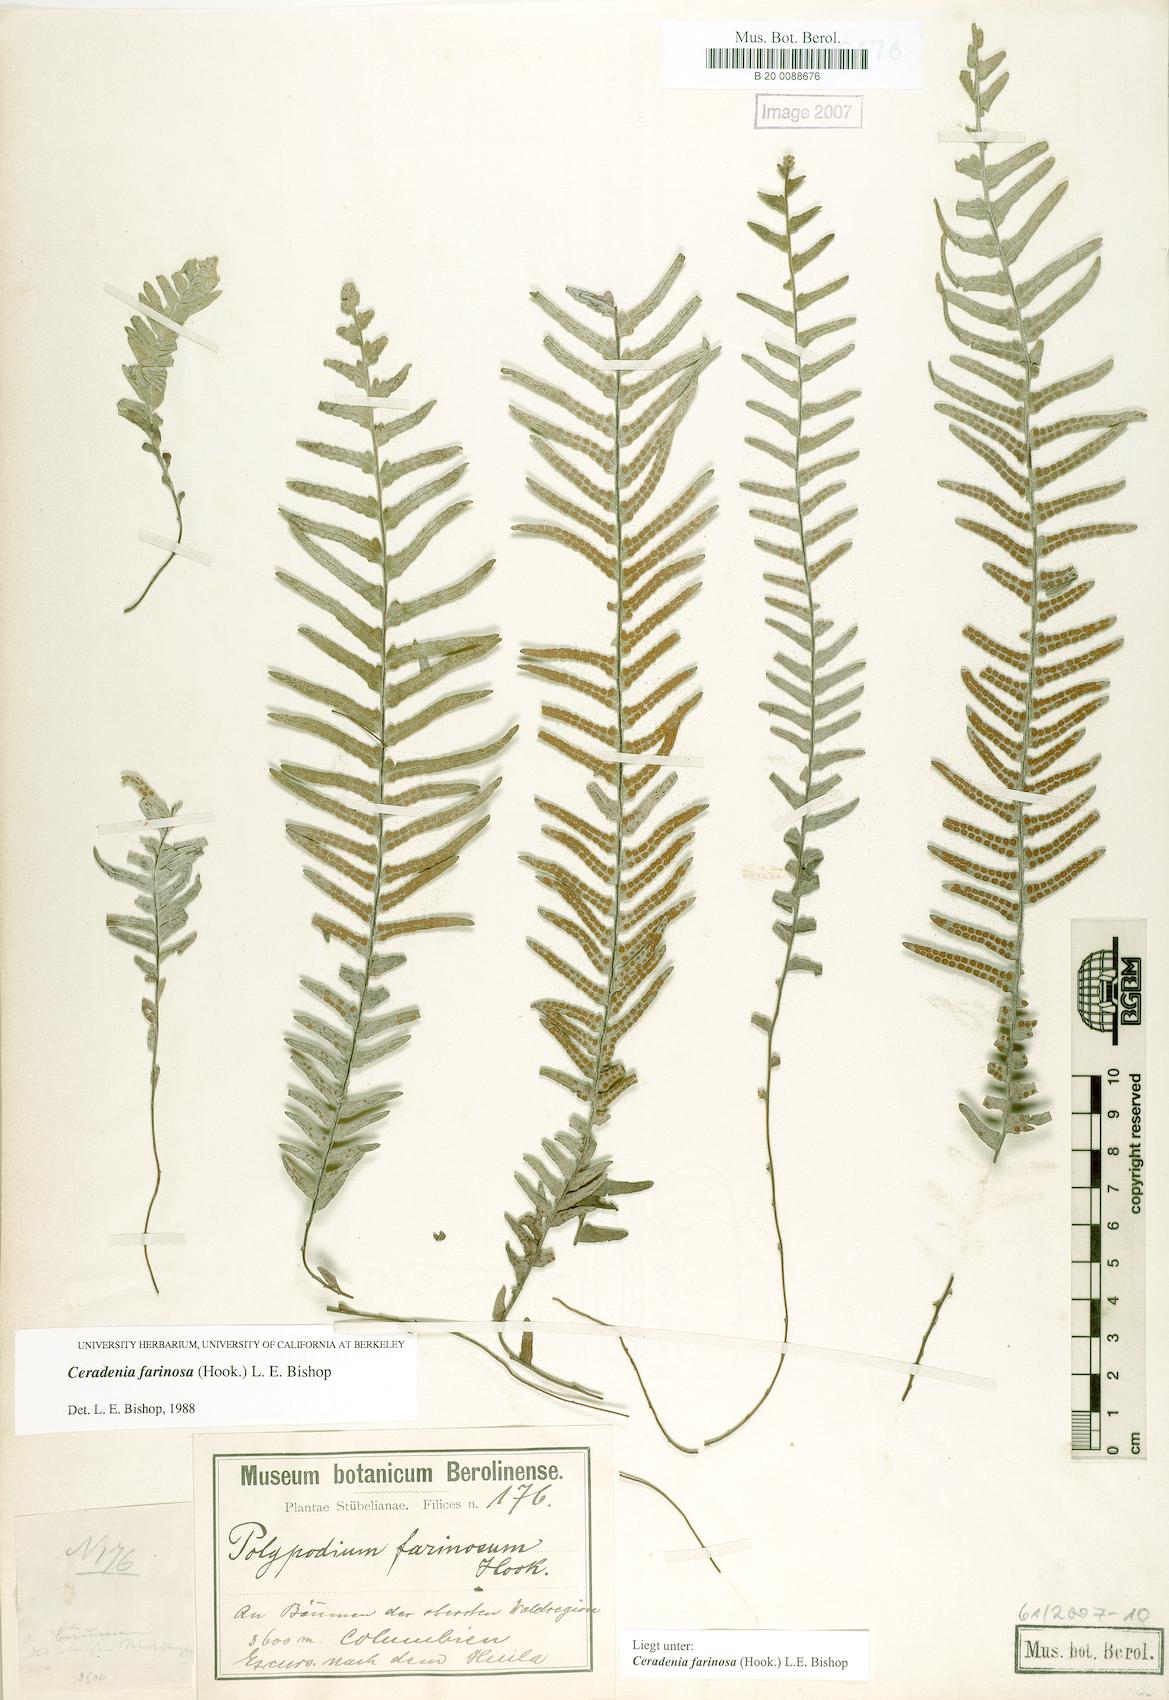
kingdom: Plantae
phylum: Tracheophyta
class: Polypodiopsida
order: Polypodiales
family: Polypodiaceae
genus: Ceradenia
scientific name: Ceradenia farinosa
